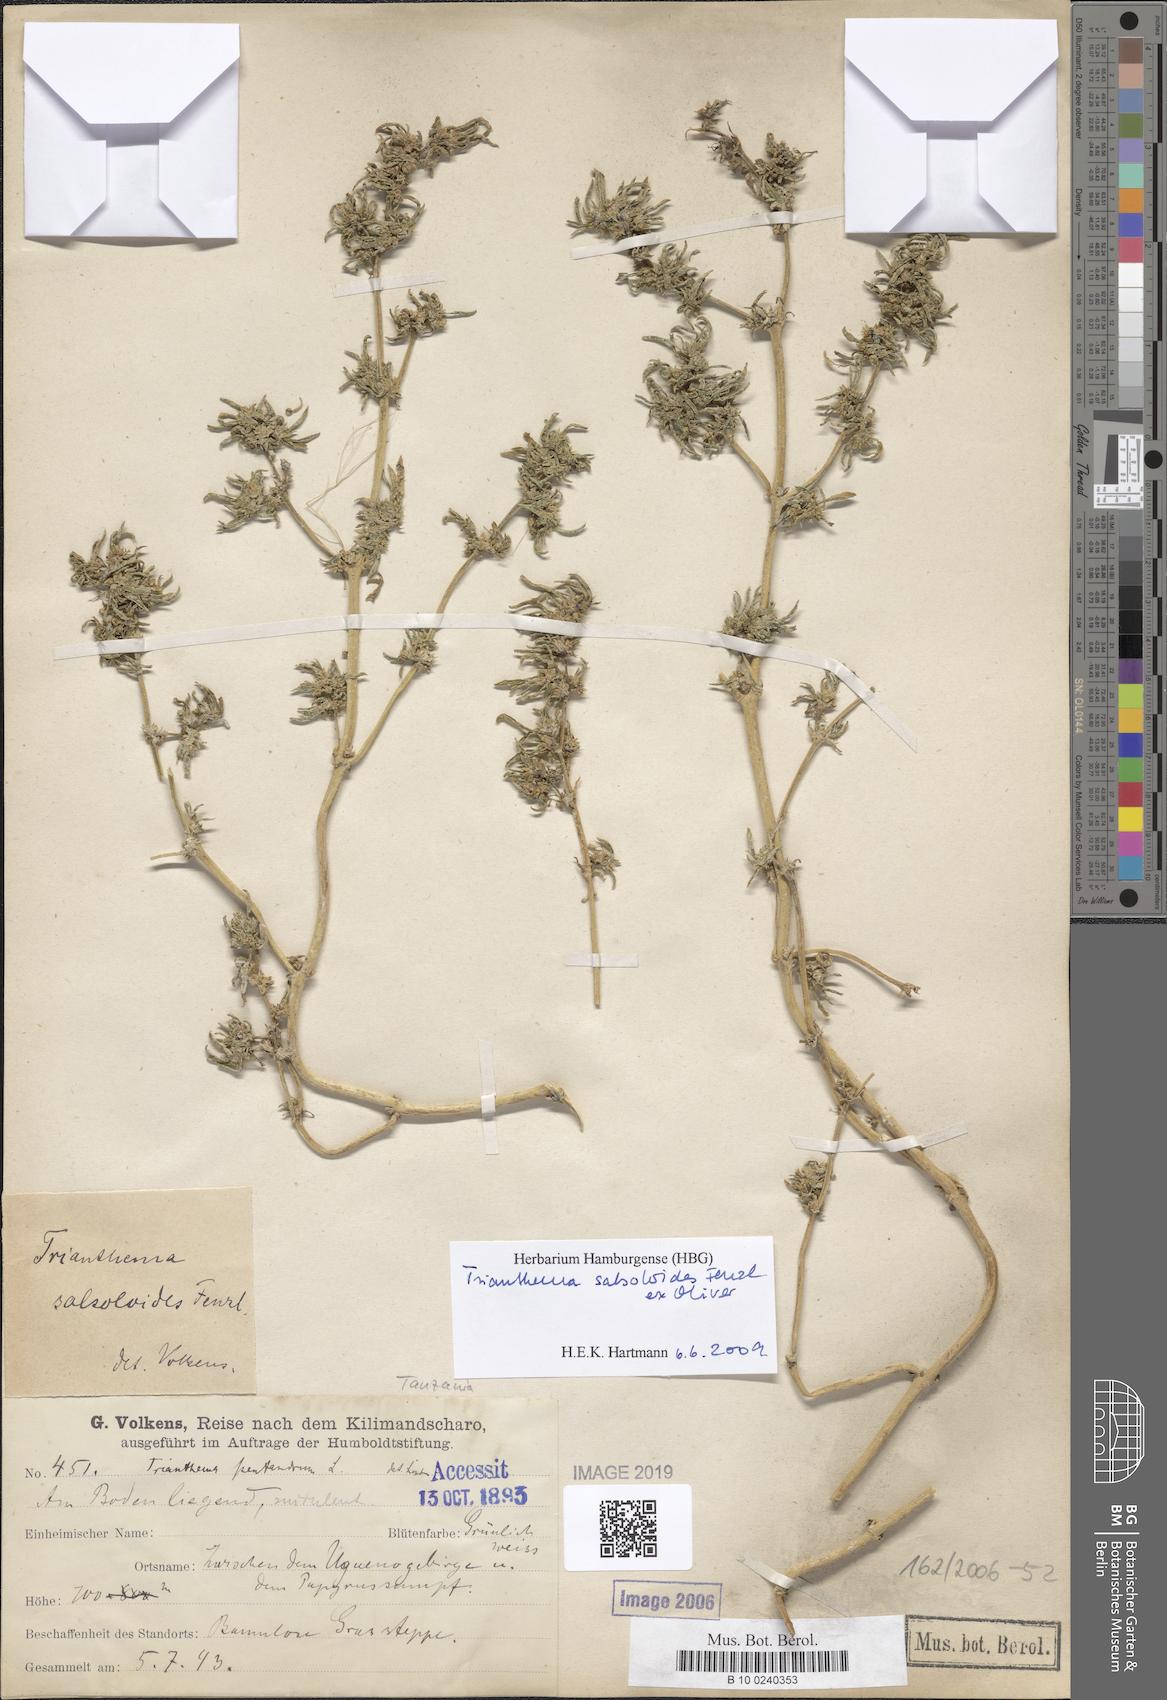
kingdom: Plantae
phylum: Tracheophyta
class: Magnoliopsida
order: Caryophyllales
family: Aizoaceae
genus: Trianthema
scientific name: Trianthema salsoloides
